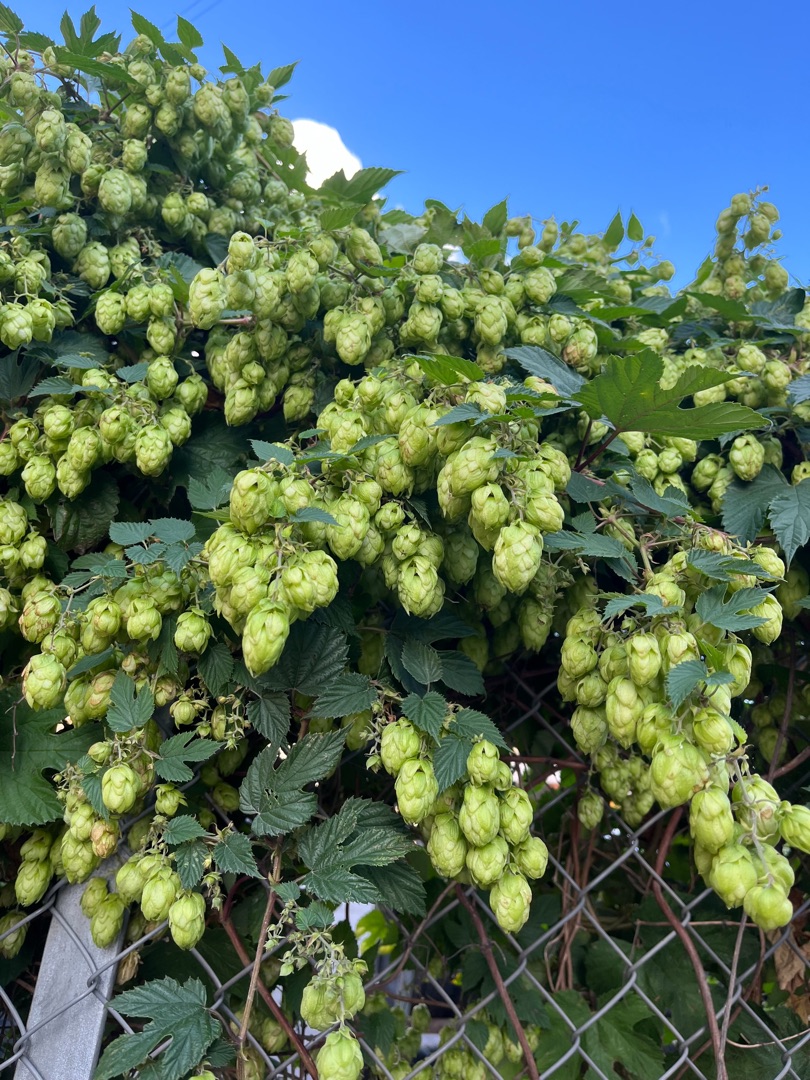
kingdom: Plantae
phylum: Tracheophyta
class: Magnoliopsida
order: Rosales
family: Cannabaceae
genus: Humulus
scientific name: Humulus lupulus
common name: Humle
